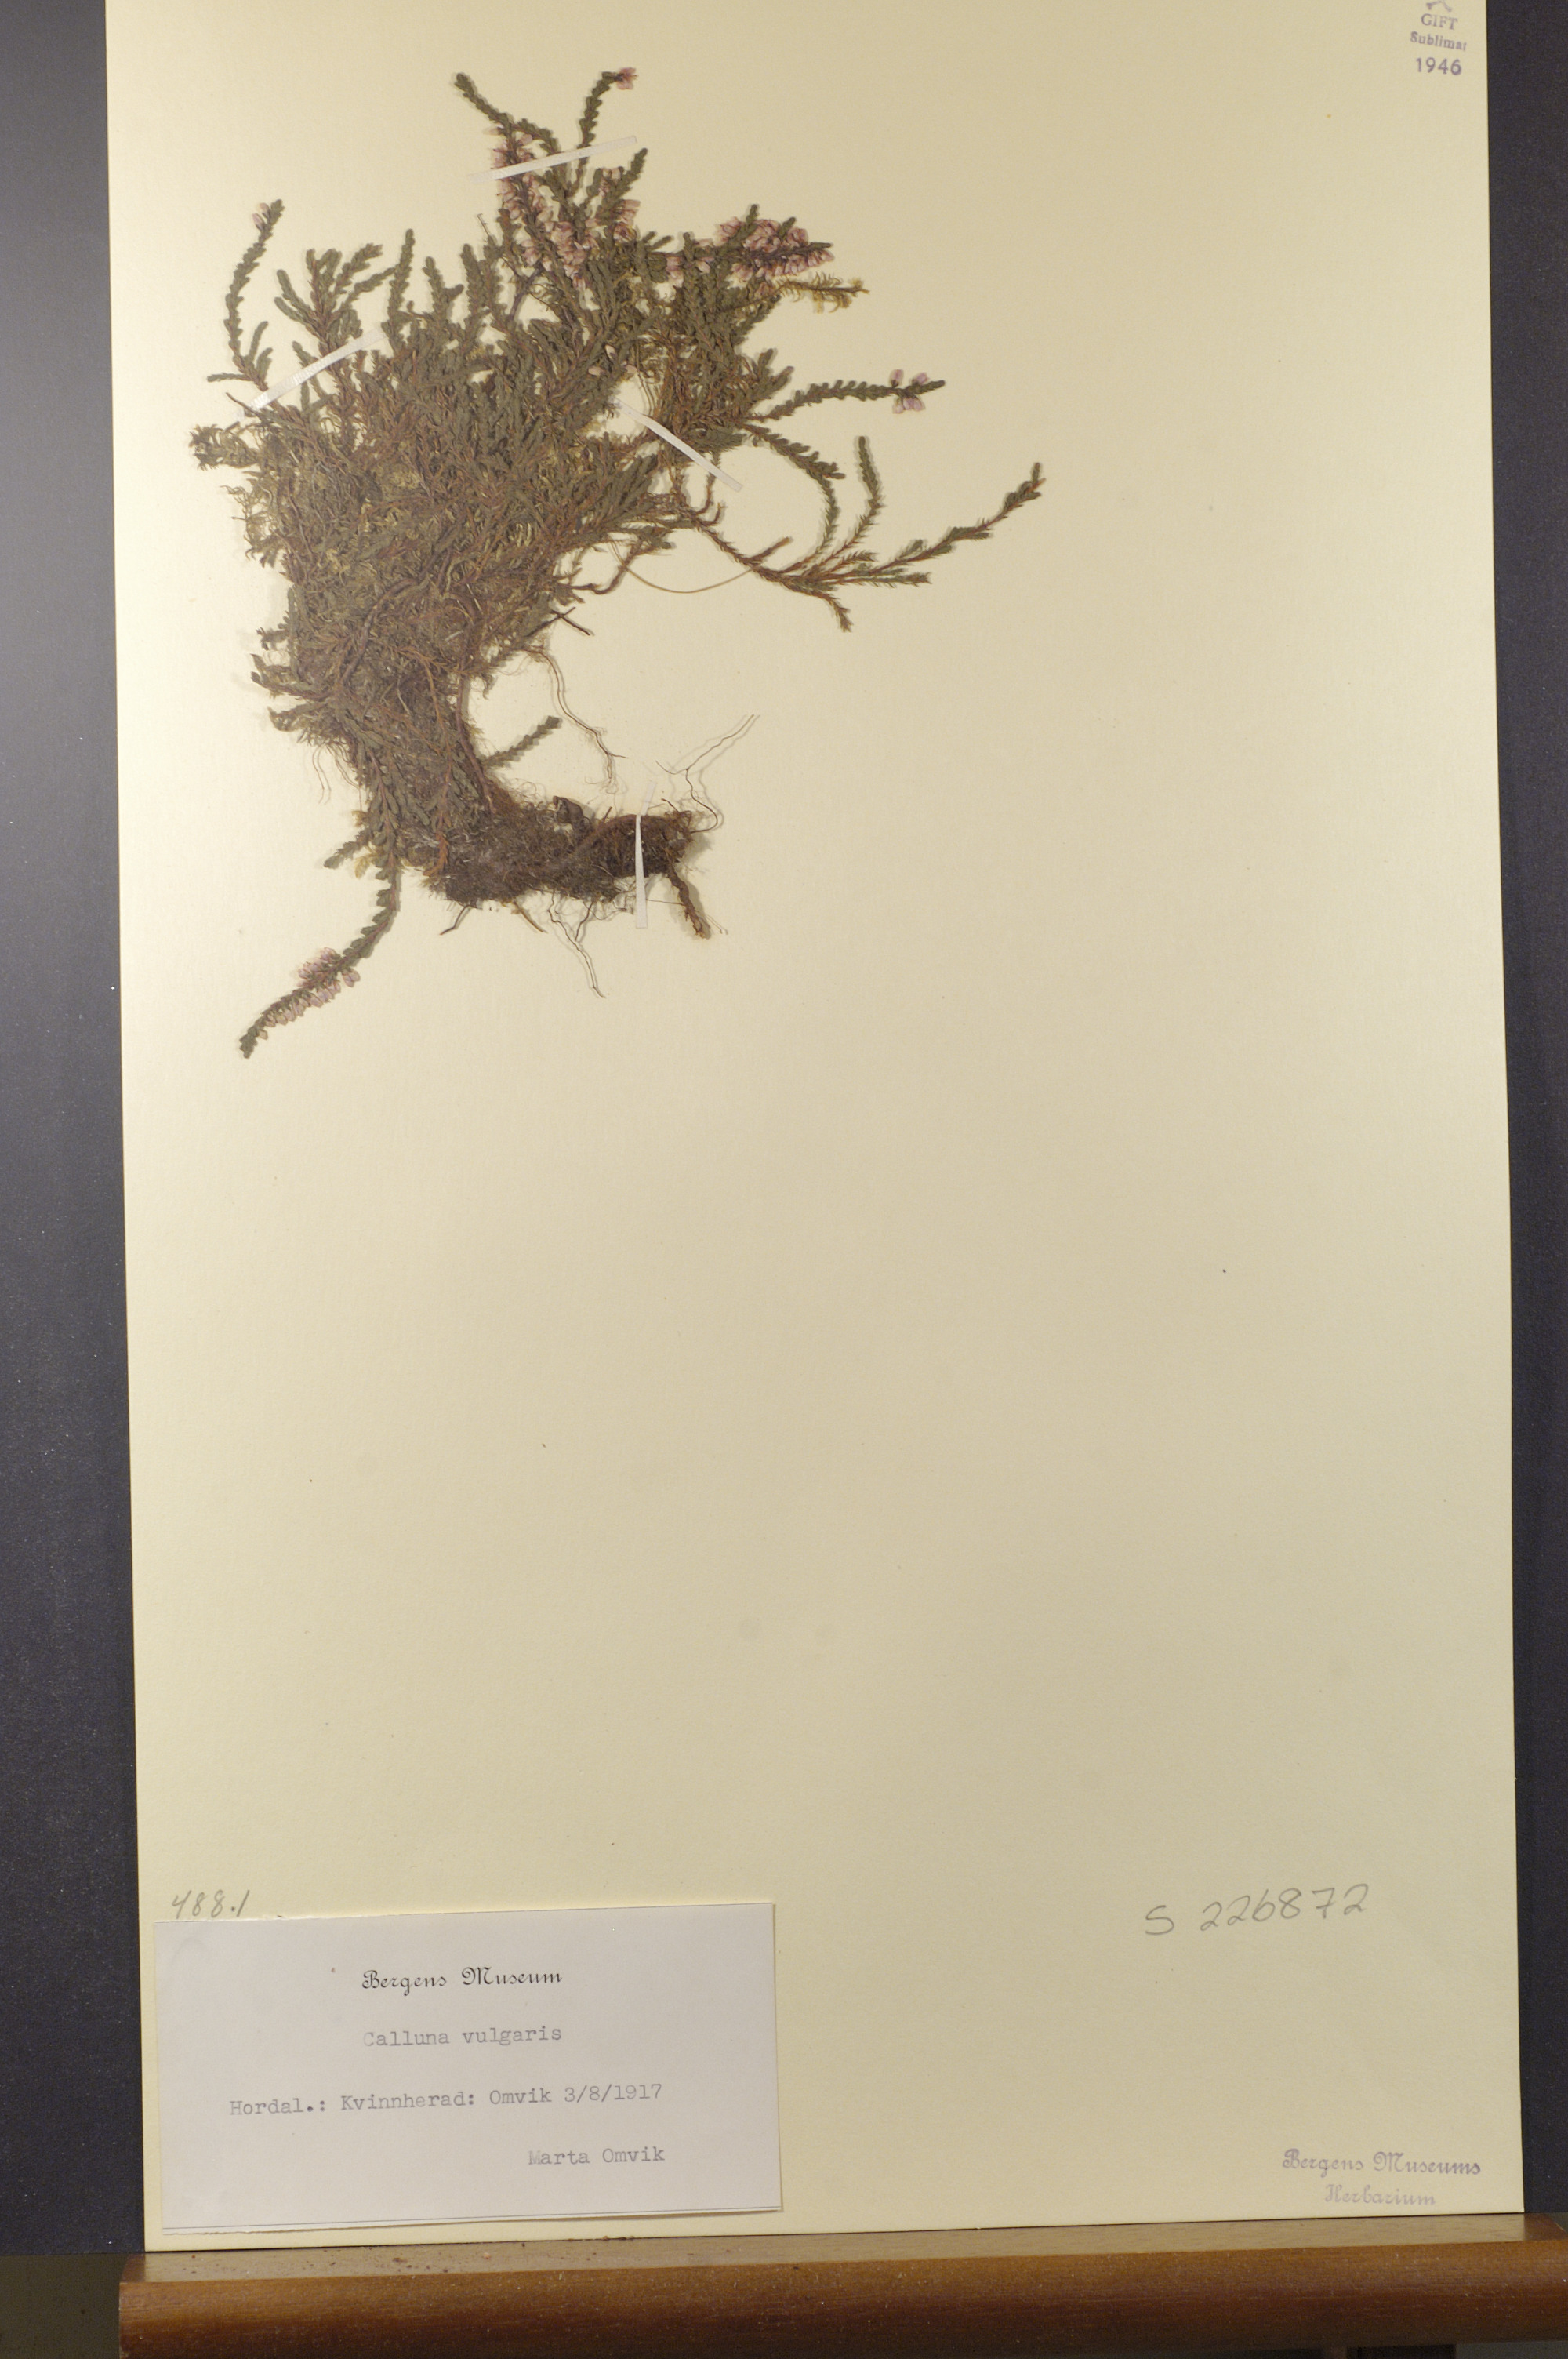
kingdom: Plantae
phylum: Tracheophyta
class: Magnoliopsida
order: Ericales
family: Ericaceae
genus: Calluna
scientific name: Calluna vulgaris
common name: Heather
